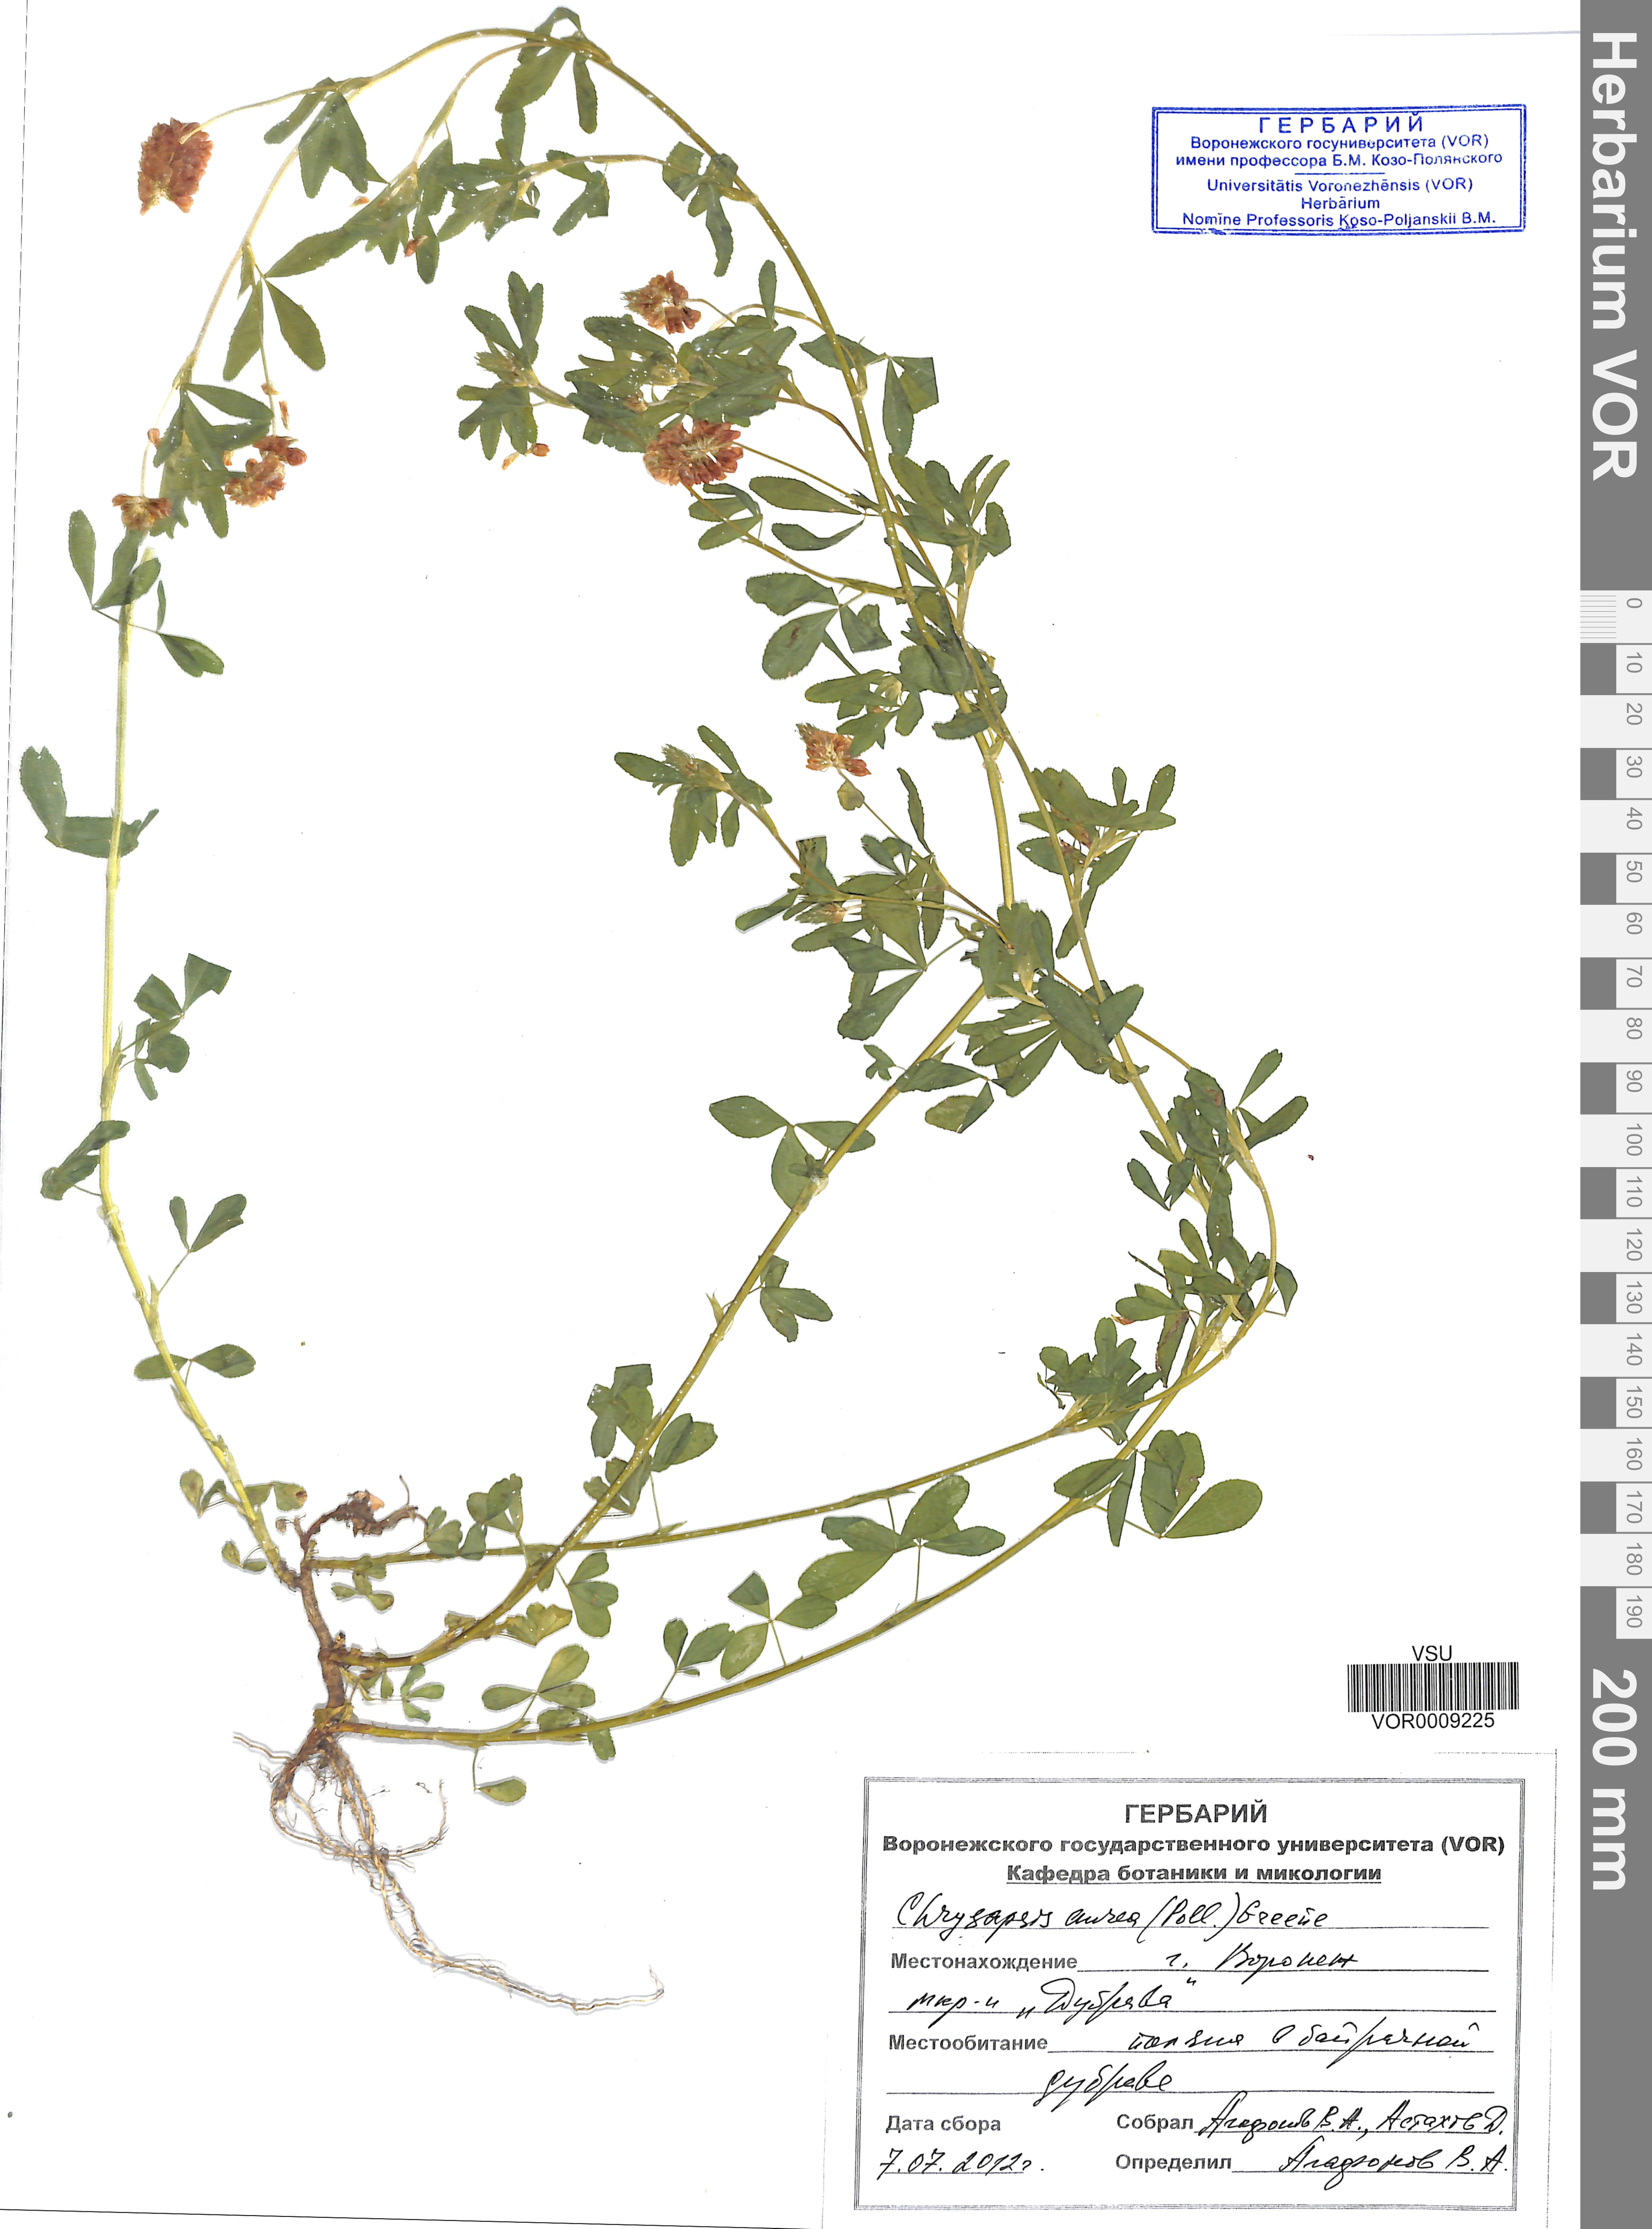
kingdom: Plantae
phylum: Tracheophyta
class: Magnoliopsida
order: Fabales
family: Fabaceae
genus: Trifolium
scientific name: Trifolium aureum
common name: Golden clover
